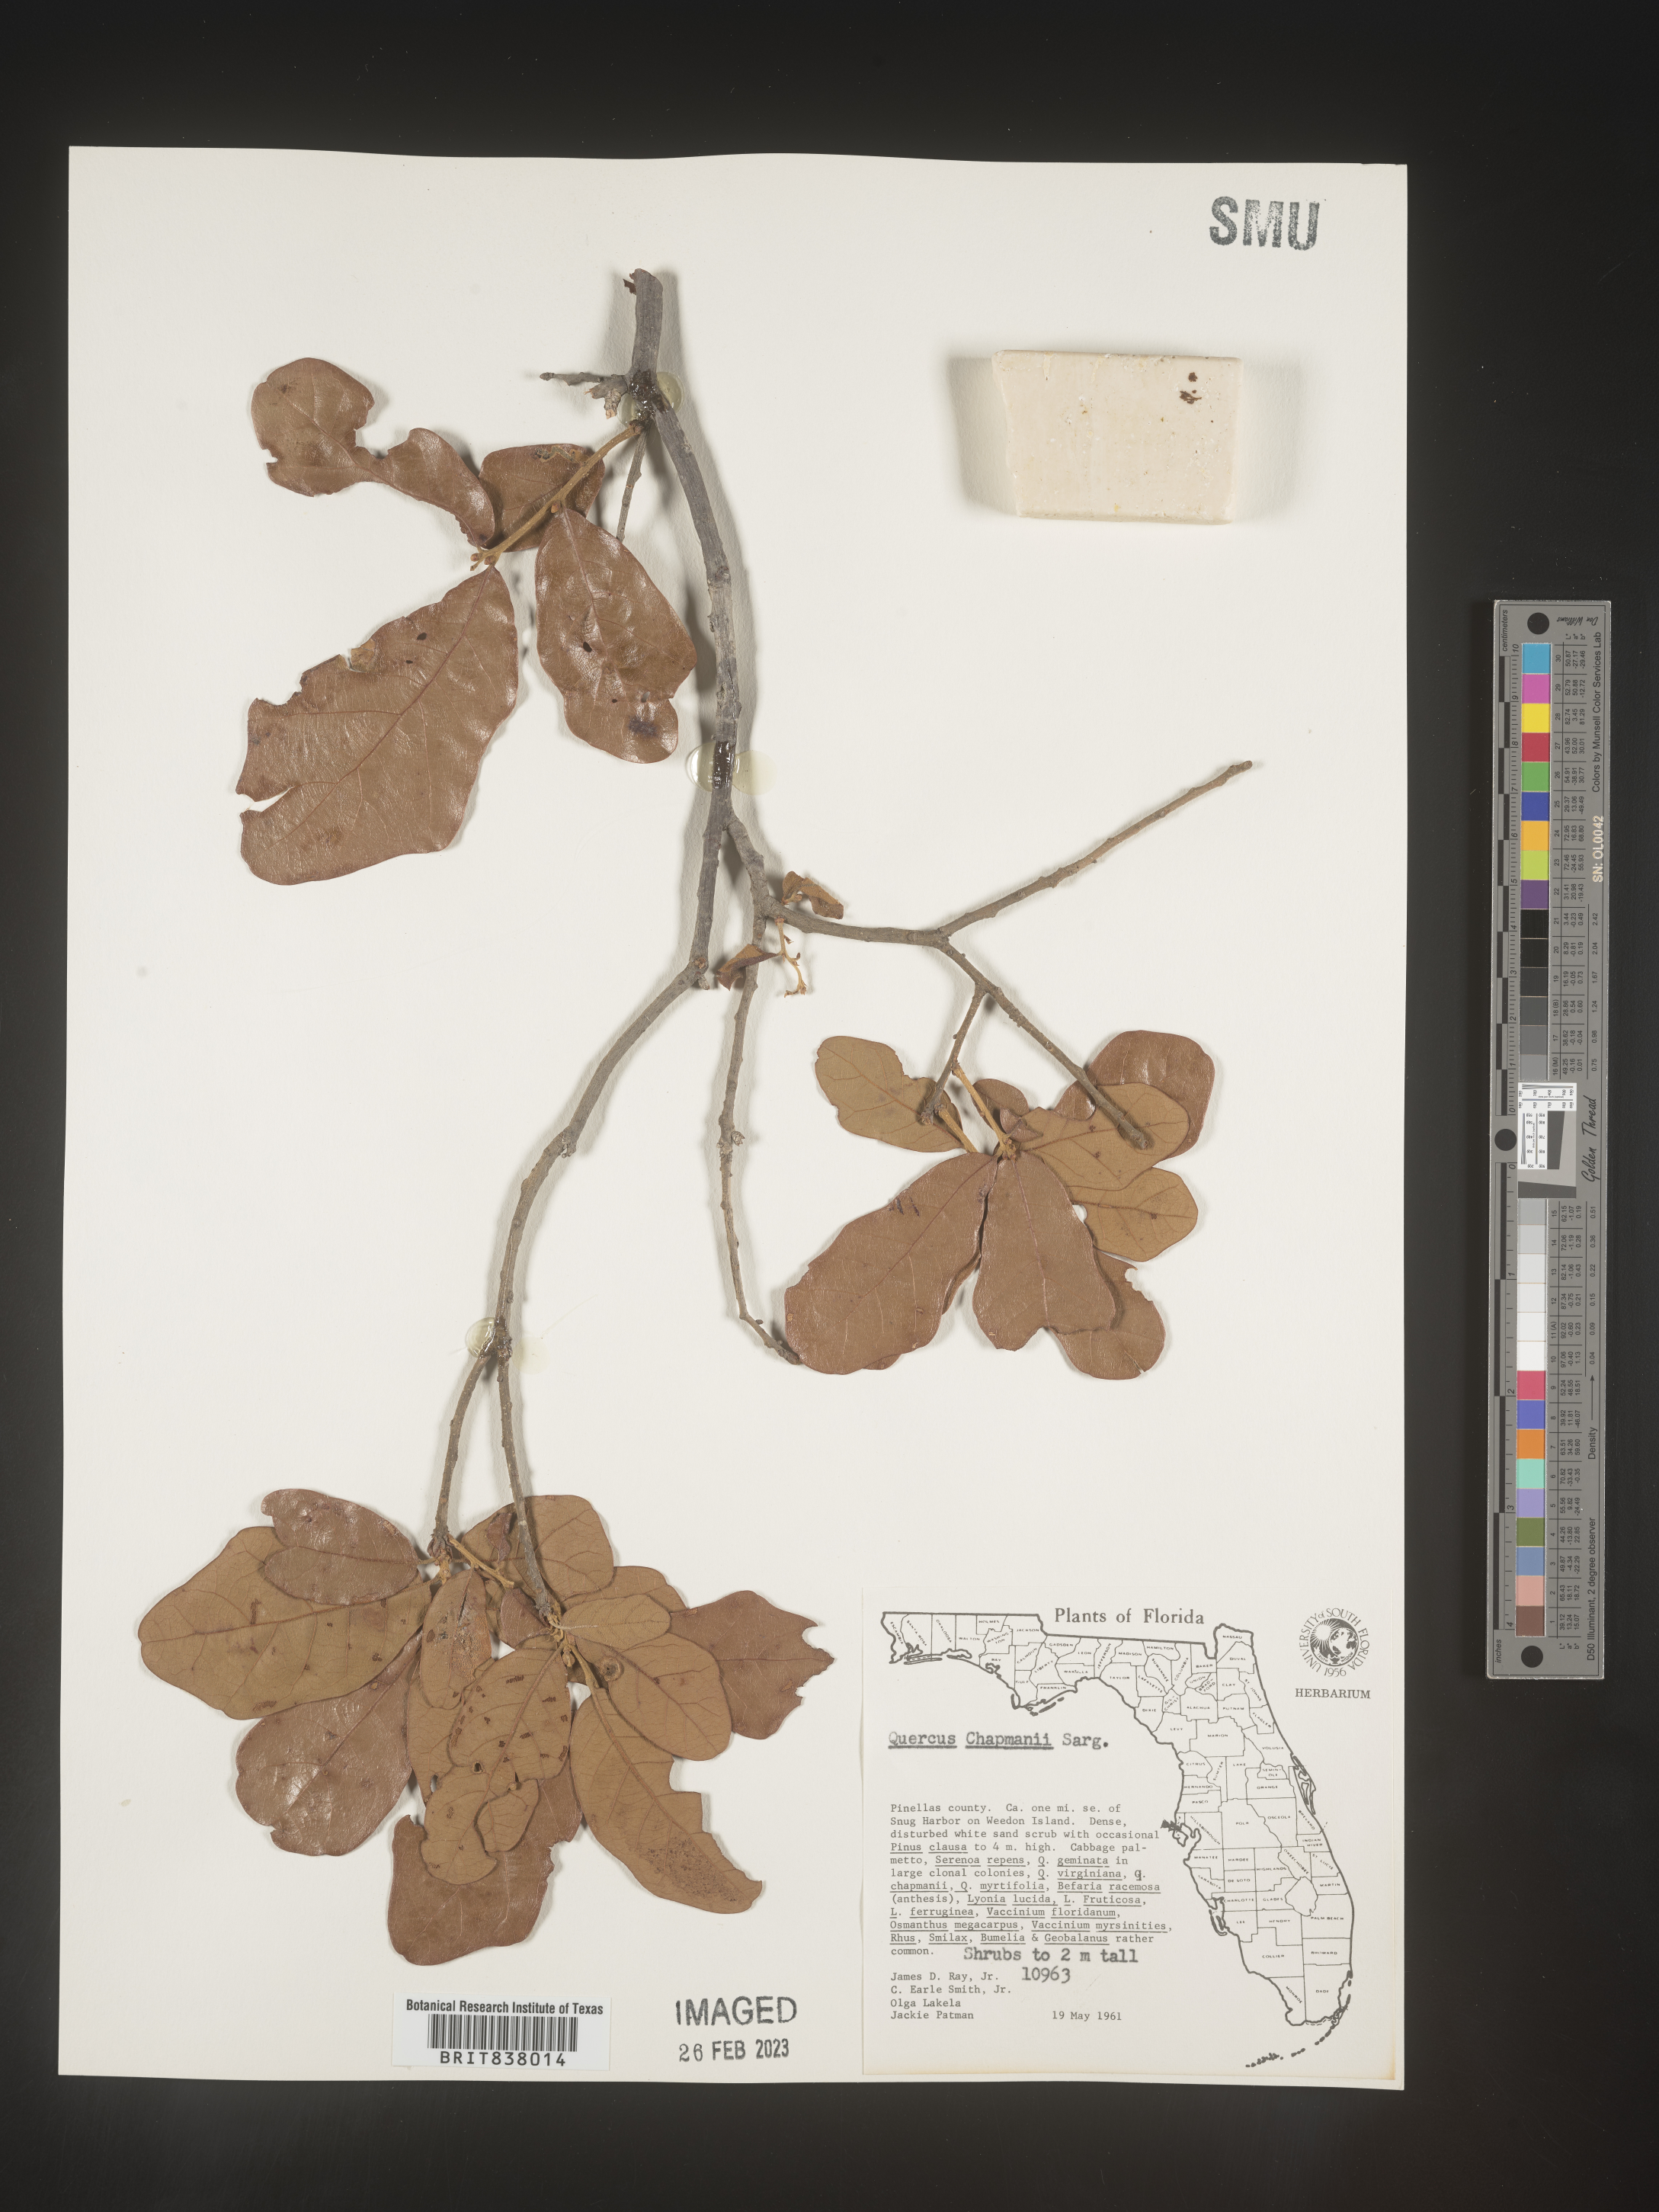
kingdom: Plantae
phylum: Tracheophyta
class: Magnoliopsida
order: Fagales
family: Fagaceae
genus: Quercus
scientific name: Quercus
